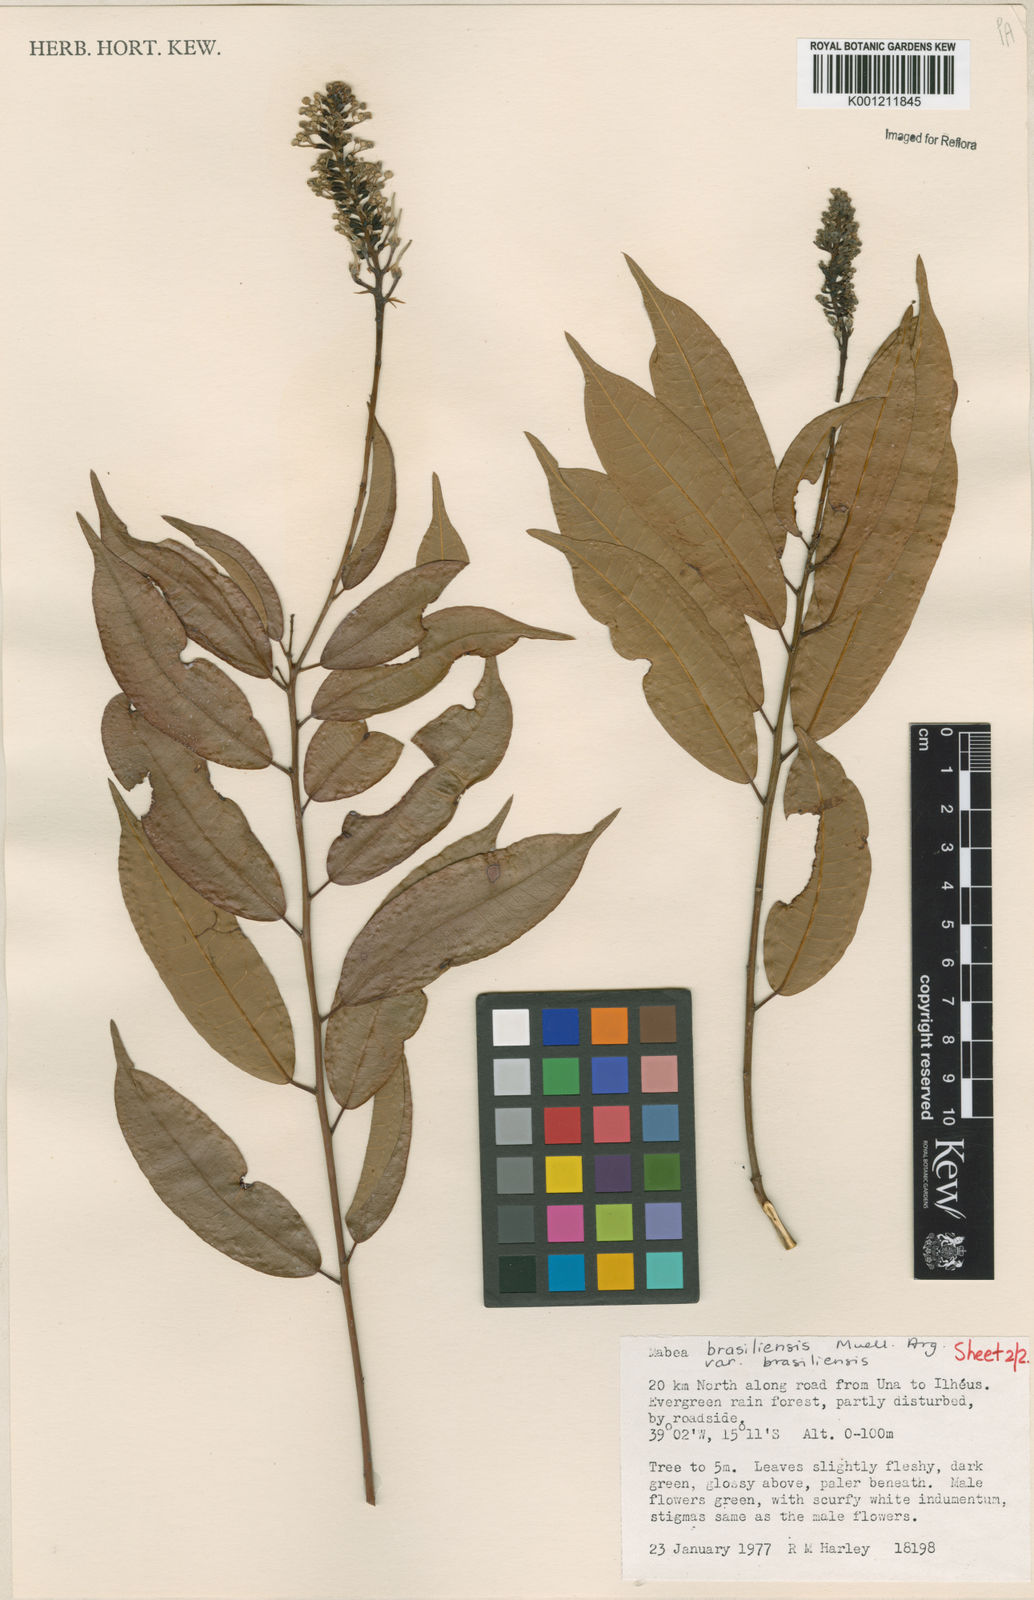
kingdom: Plantae
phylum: Tracheophyta
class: Magnoliopsida
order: Malpighiales
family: Euphorbiaceae
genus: Mabea
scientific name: Mabea piriri
